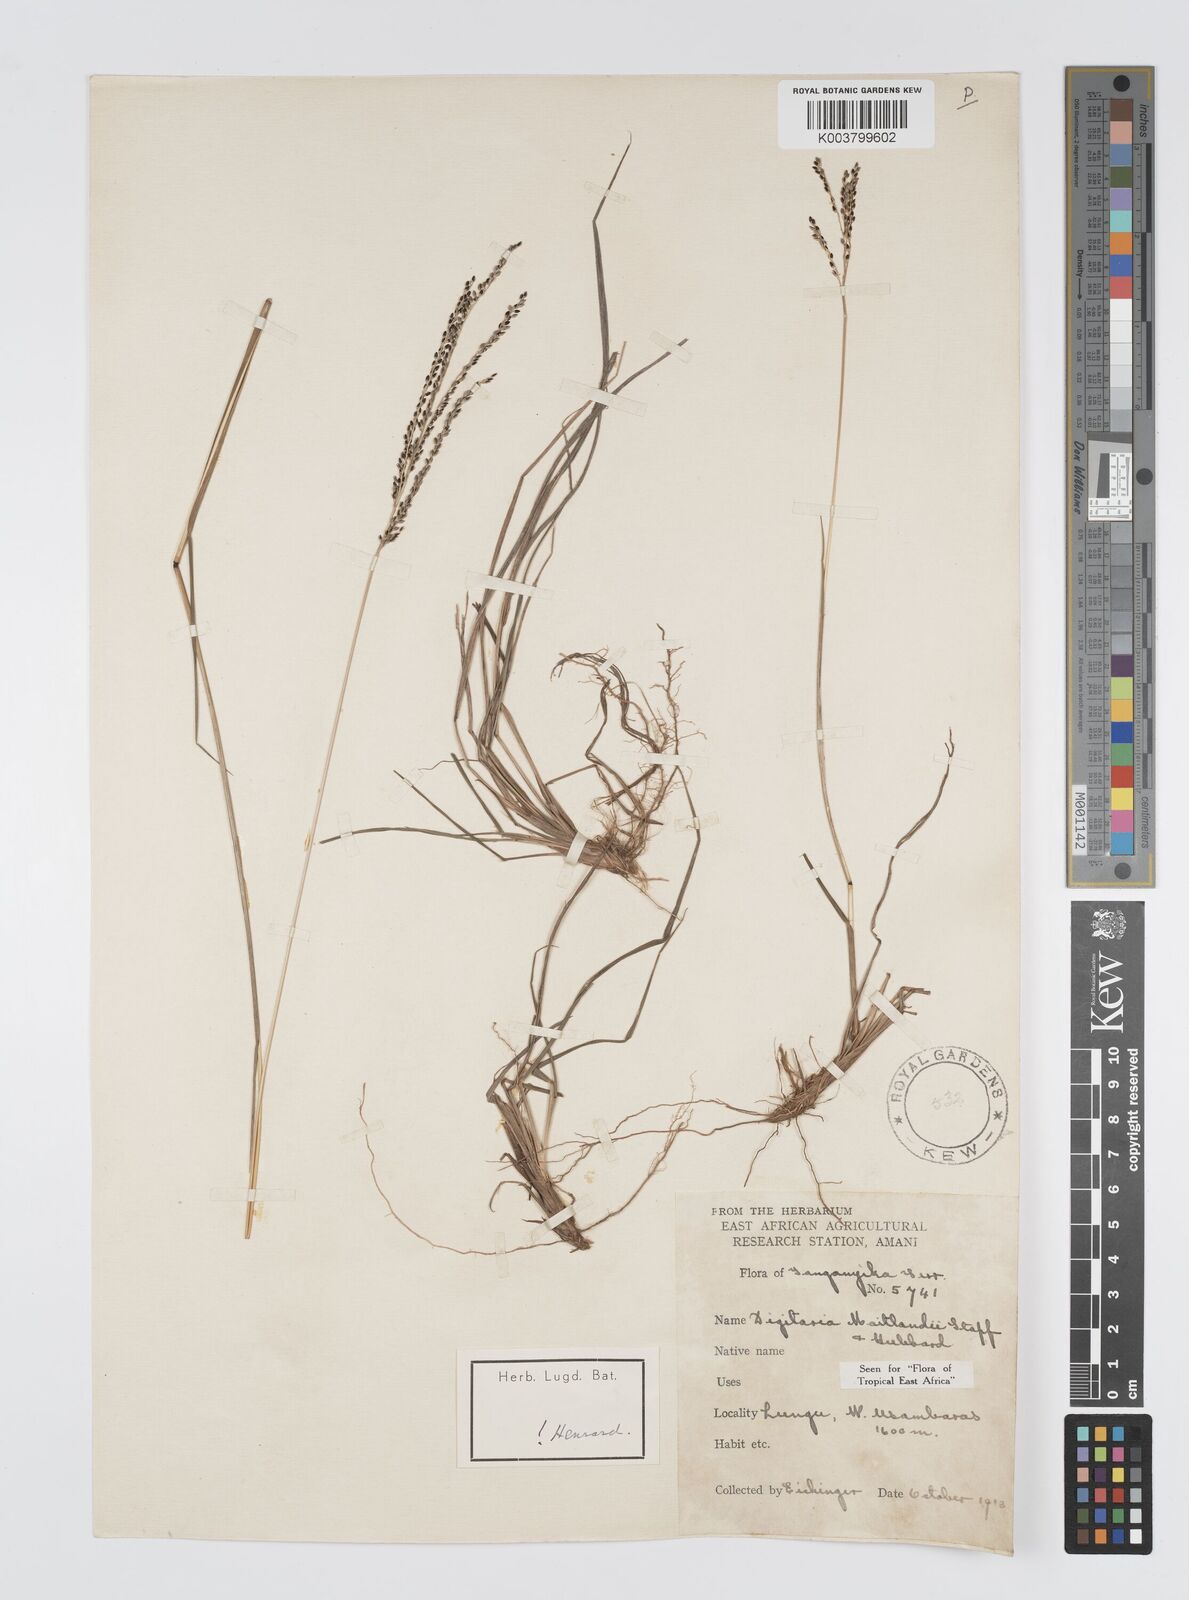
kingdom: Plantae
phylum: Tracheophyta
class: Liliopsida
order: Poales
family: Poaceae
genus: Digitaria
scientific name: Digitaria maitlandii
